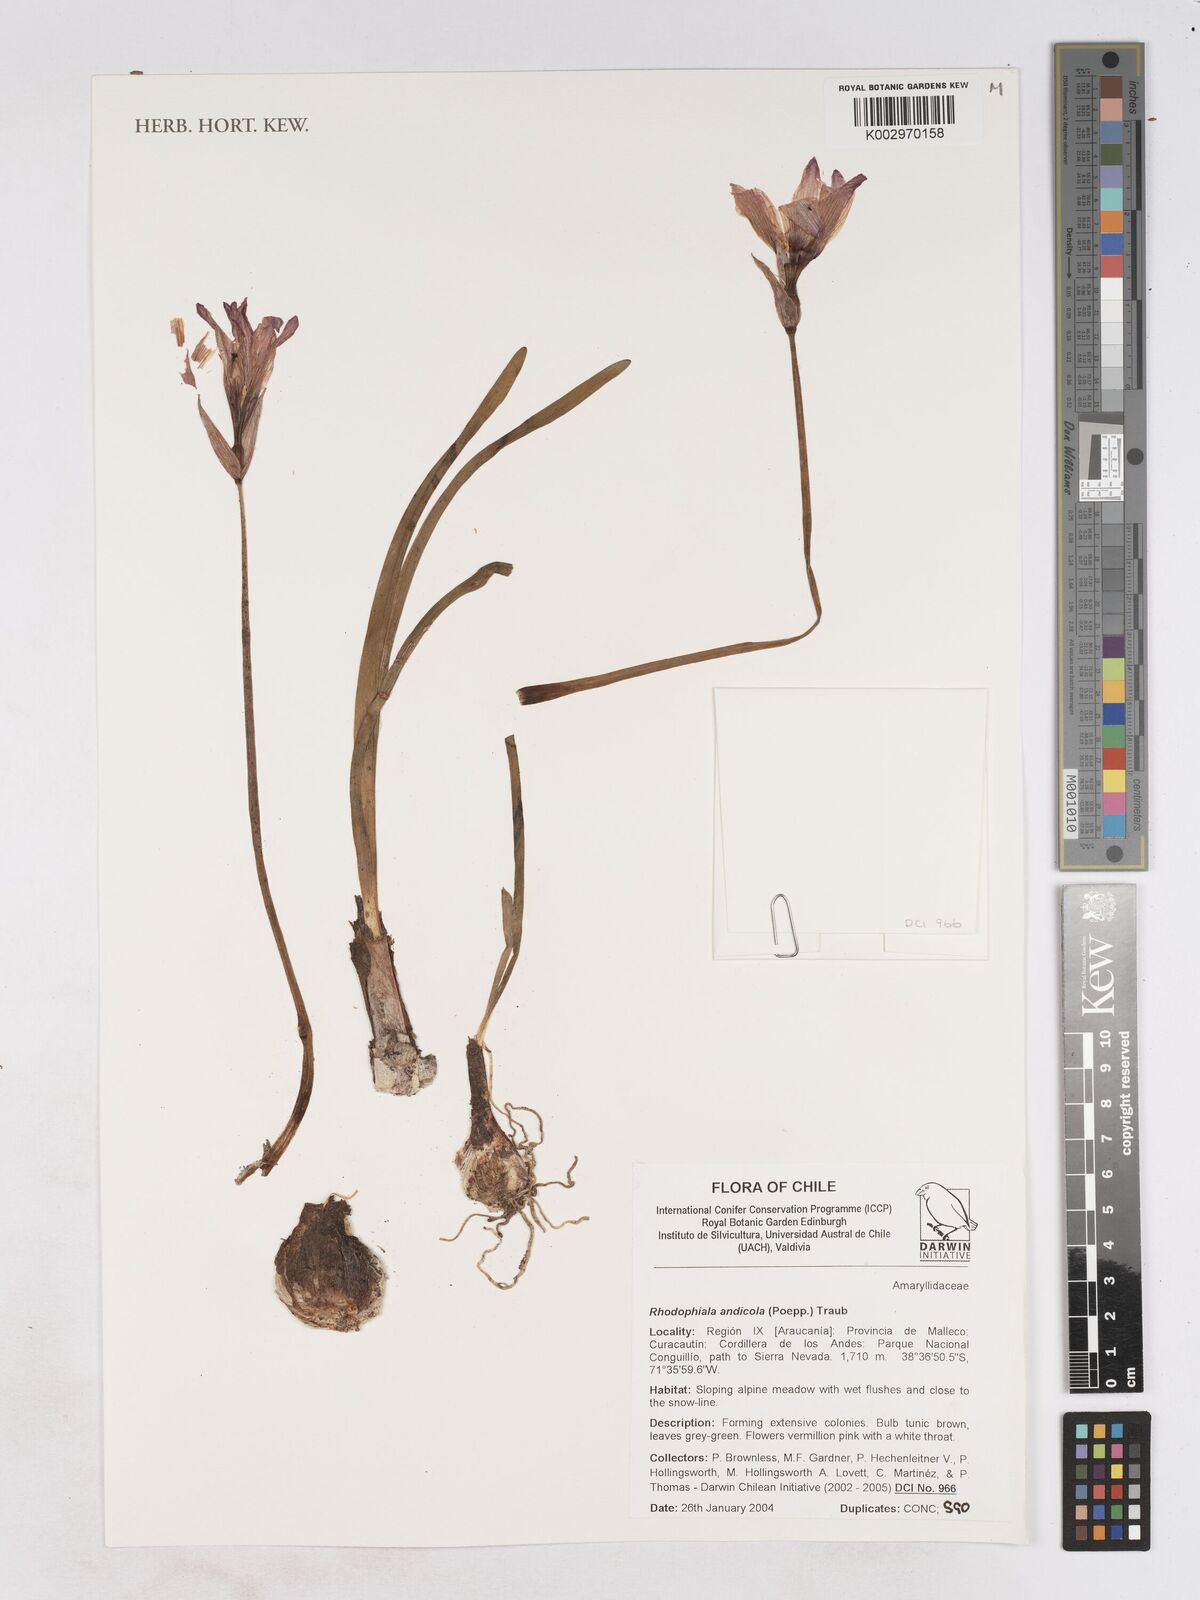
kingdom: Plantae
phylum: Tracheophyta
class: Liliopsida
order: Asparagales
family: Amaryllidaceae
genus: Rhodolirium
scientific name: Rhodolirium andicola
